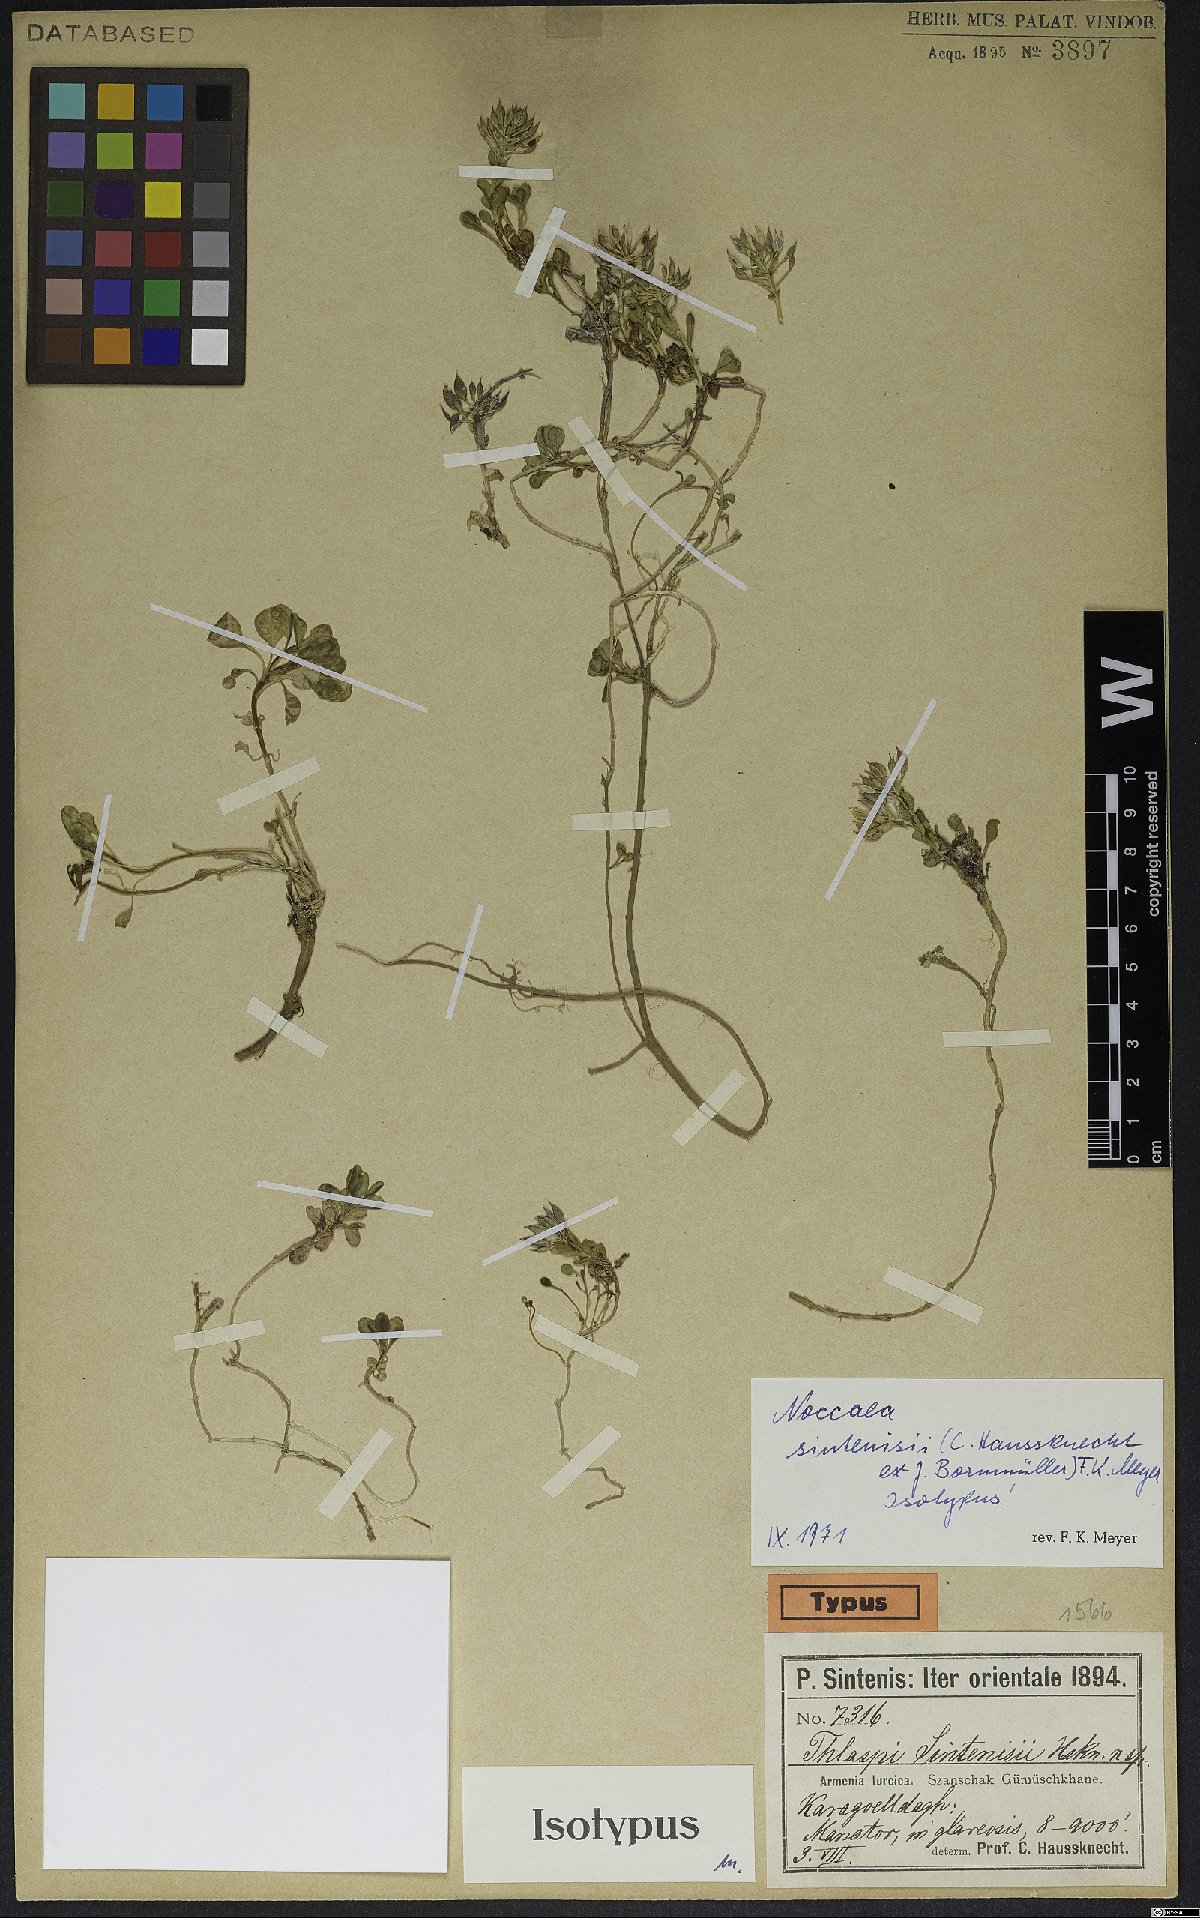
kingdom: Plantae
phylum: Tracheophyta
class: Magnoliopsida
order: Brassicales
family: Brassicaceae
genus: Noccaea
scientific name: Noccaea sintenisii
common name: Sintensis' penny-cress
